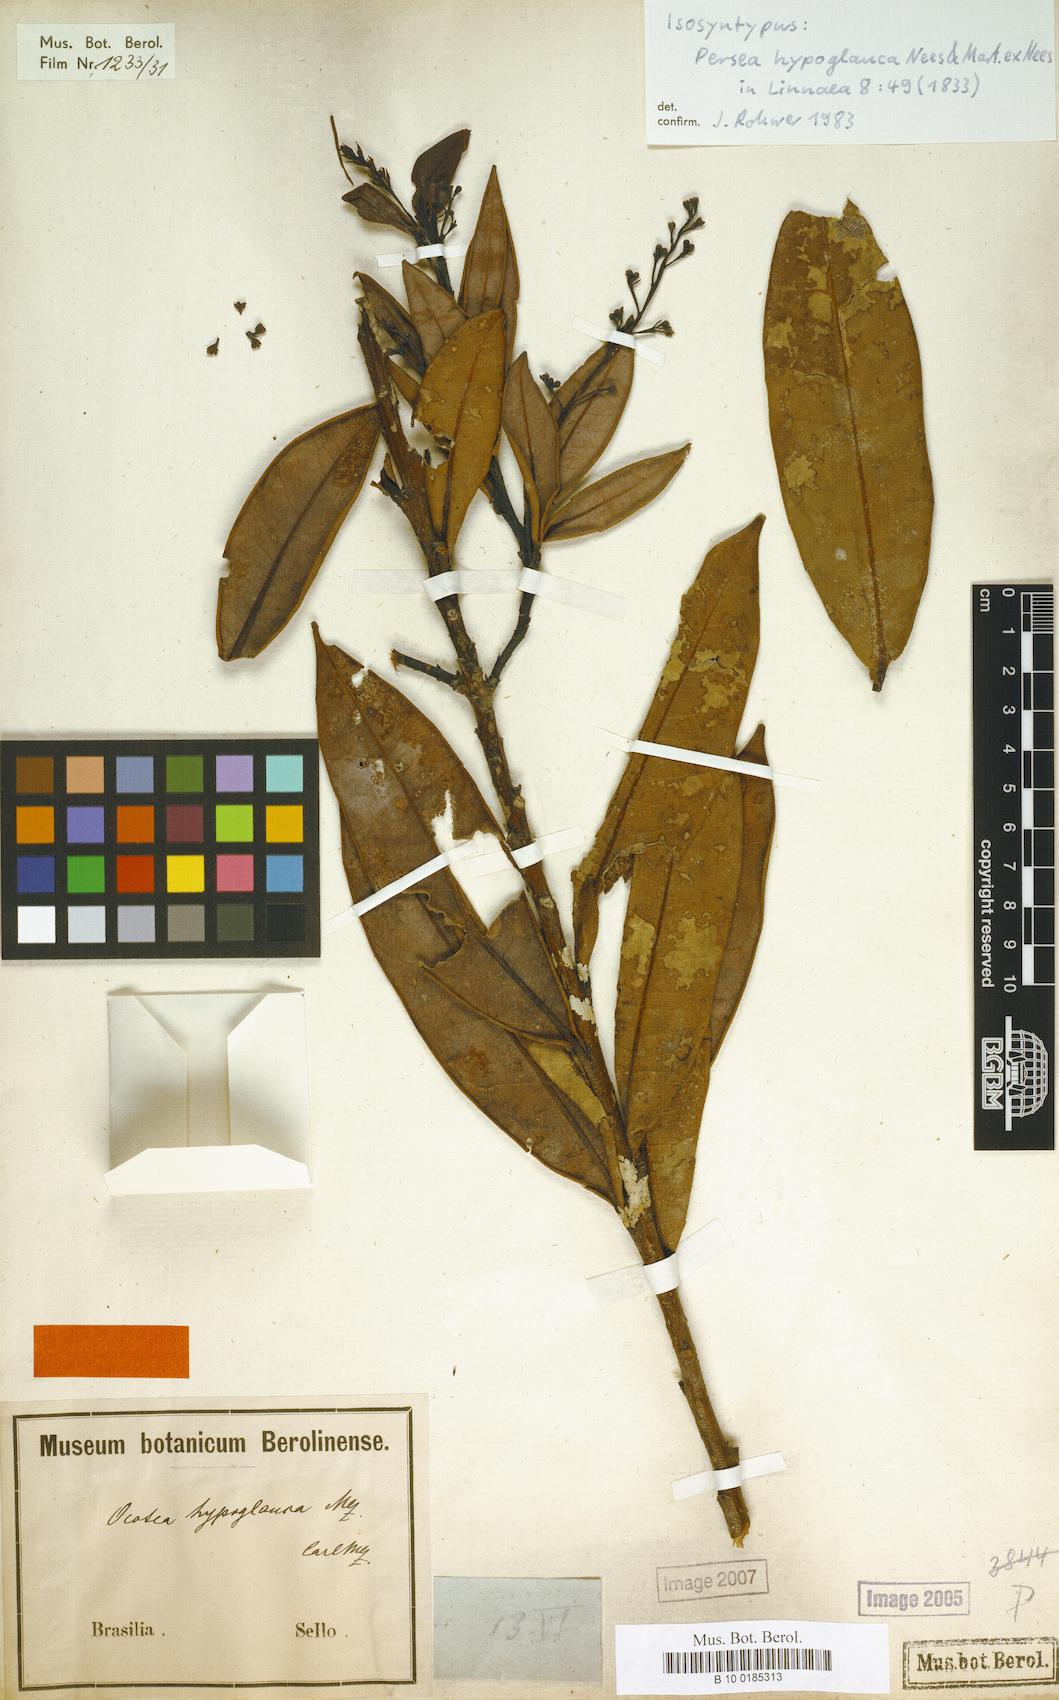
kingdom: Plantae
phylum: Tracheophyta
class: Magnoliopsida
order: Laurales
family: Lauraceae
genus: Ocotea
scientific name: Ocotea hypoglauca
